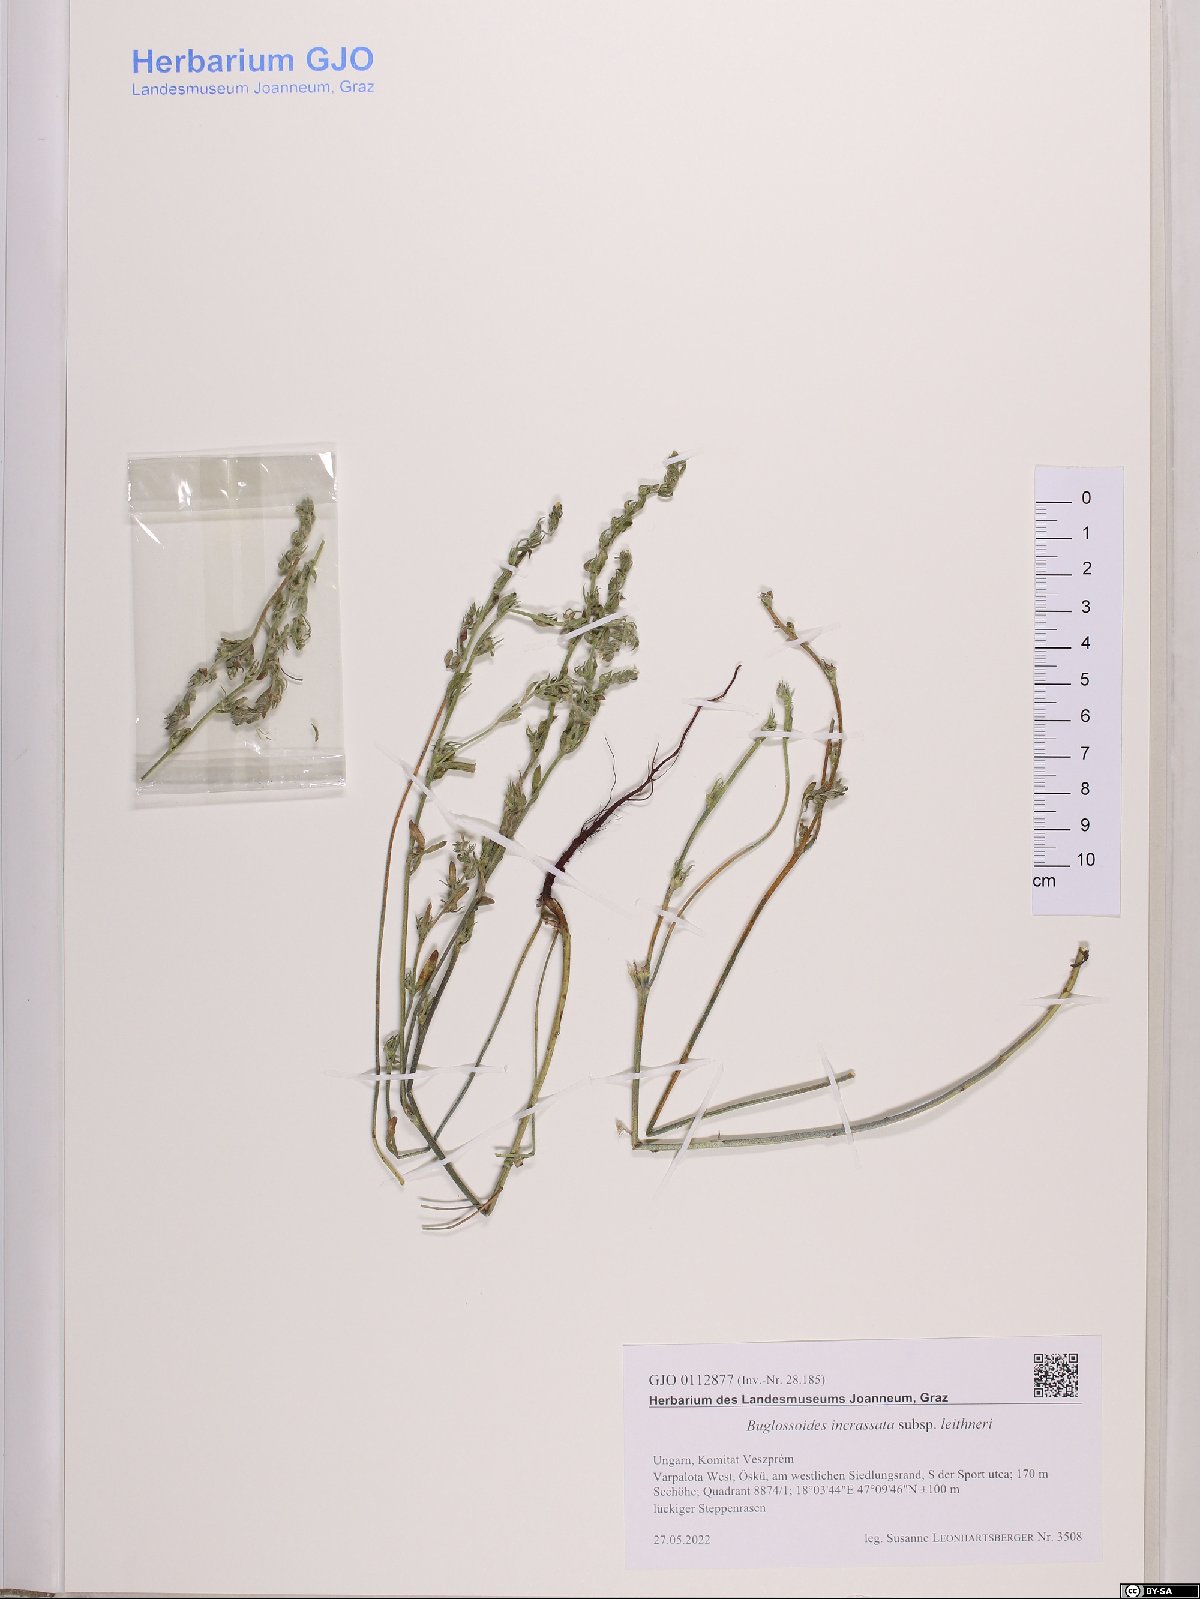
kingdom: Plantae
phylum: Tracheophyta
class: Magnoliopsida
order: Boraginales
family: Boraginaceae
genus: Buglossoides
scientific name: Buglossoides incrassata
